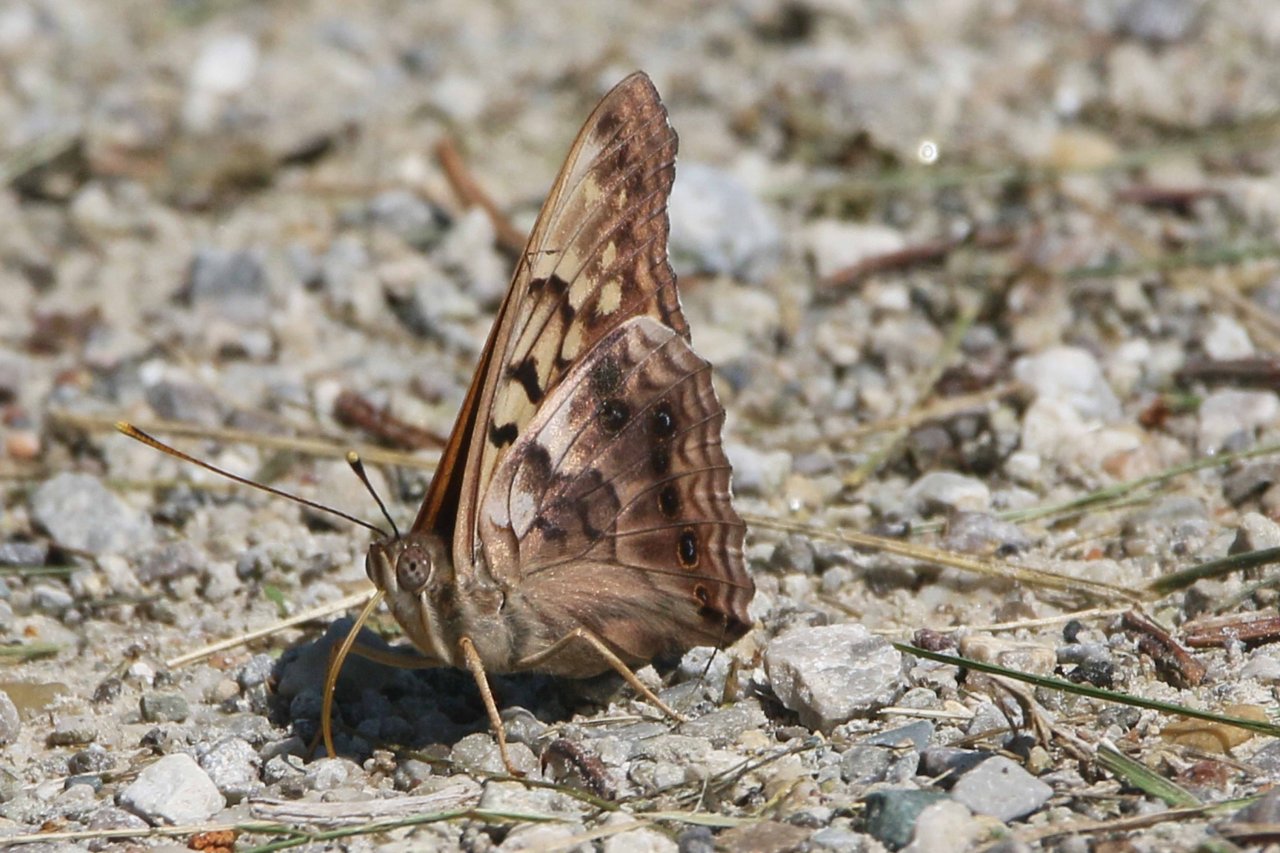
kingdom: Animalia
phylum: Arthropoda
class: Insecta
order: Lepidoptera
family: Nymphalidae
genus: Asterocampa
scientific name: Asterocampa clyton
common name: Tawny Emperor
